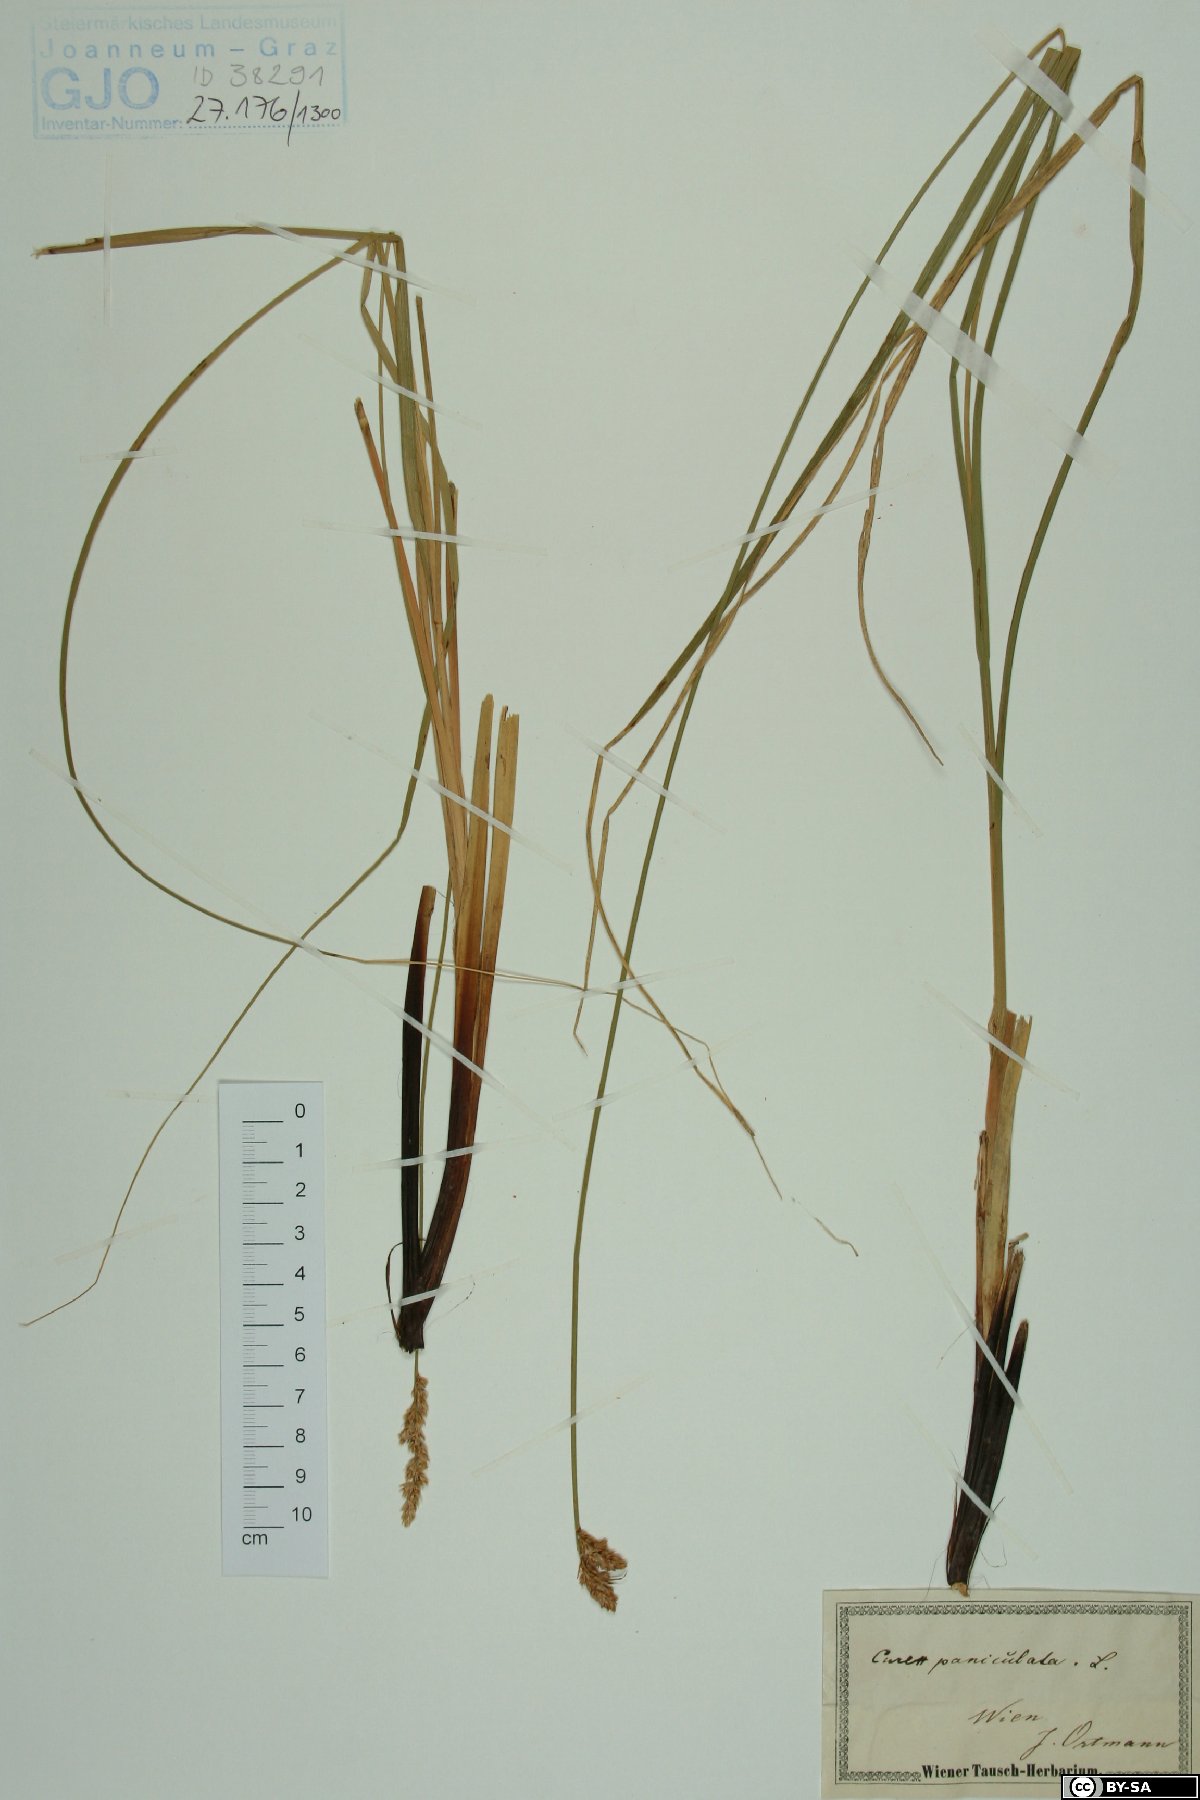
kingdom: Plantae
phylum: Tracheophyta
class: Liliopsida
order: Poales
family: Cyperaceae
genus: Carex
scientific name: Carex paniculata
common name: Greater tussock-sedge
